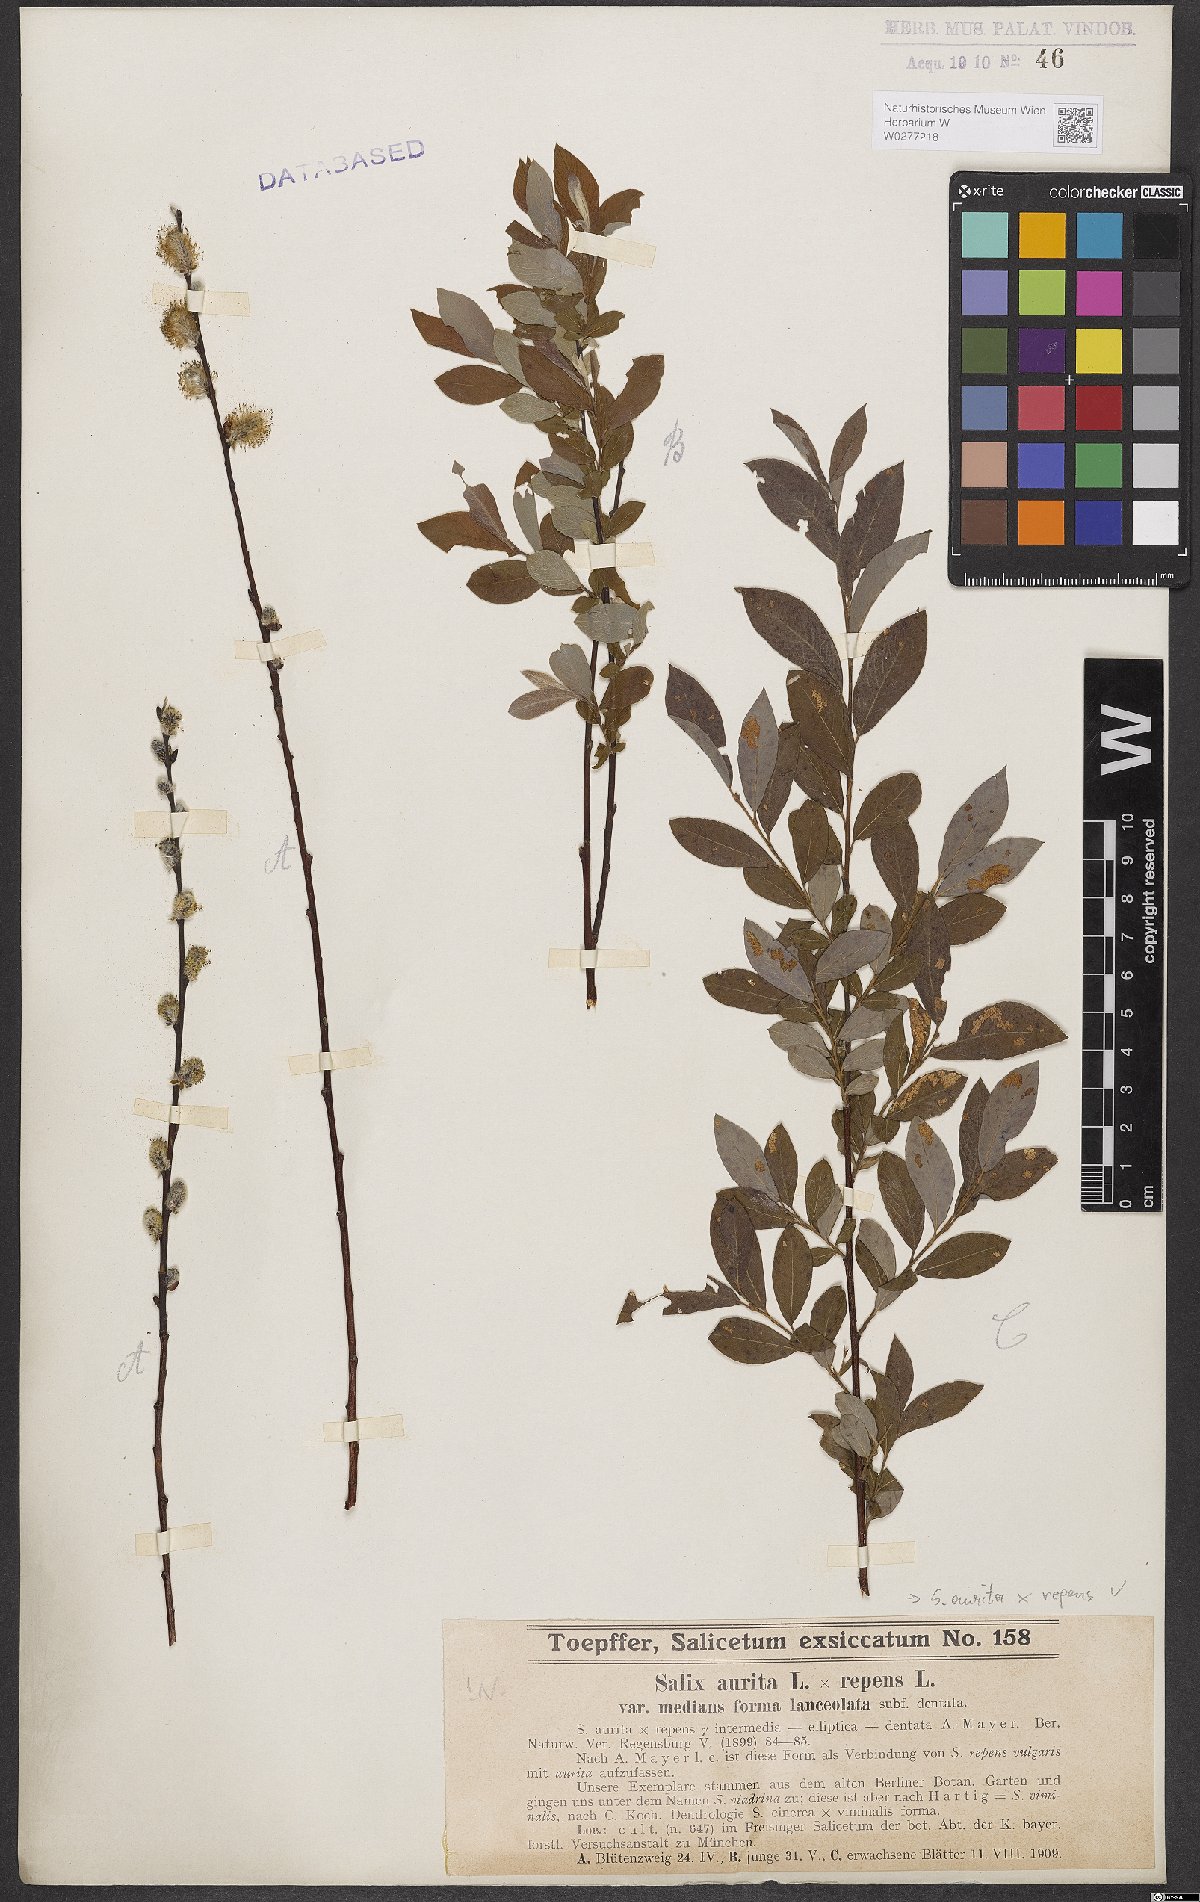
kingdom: Plantae
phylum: Tracheophyta
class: Magnoliopsida
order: Malpighiales
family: Salicaceae
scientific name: Salicaceae
